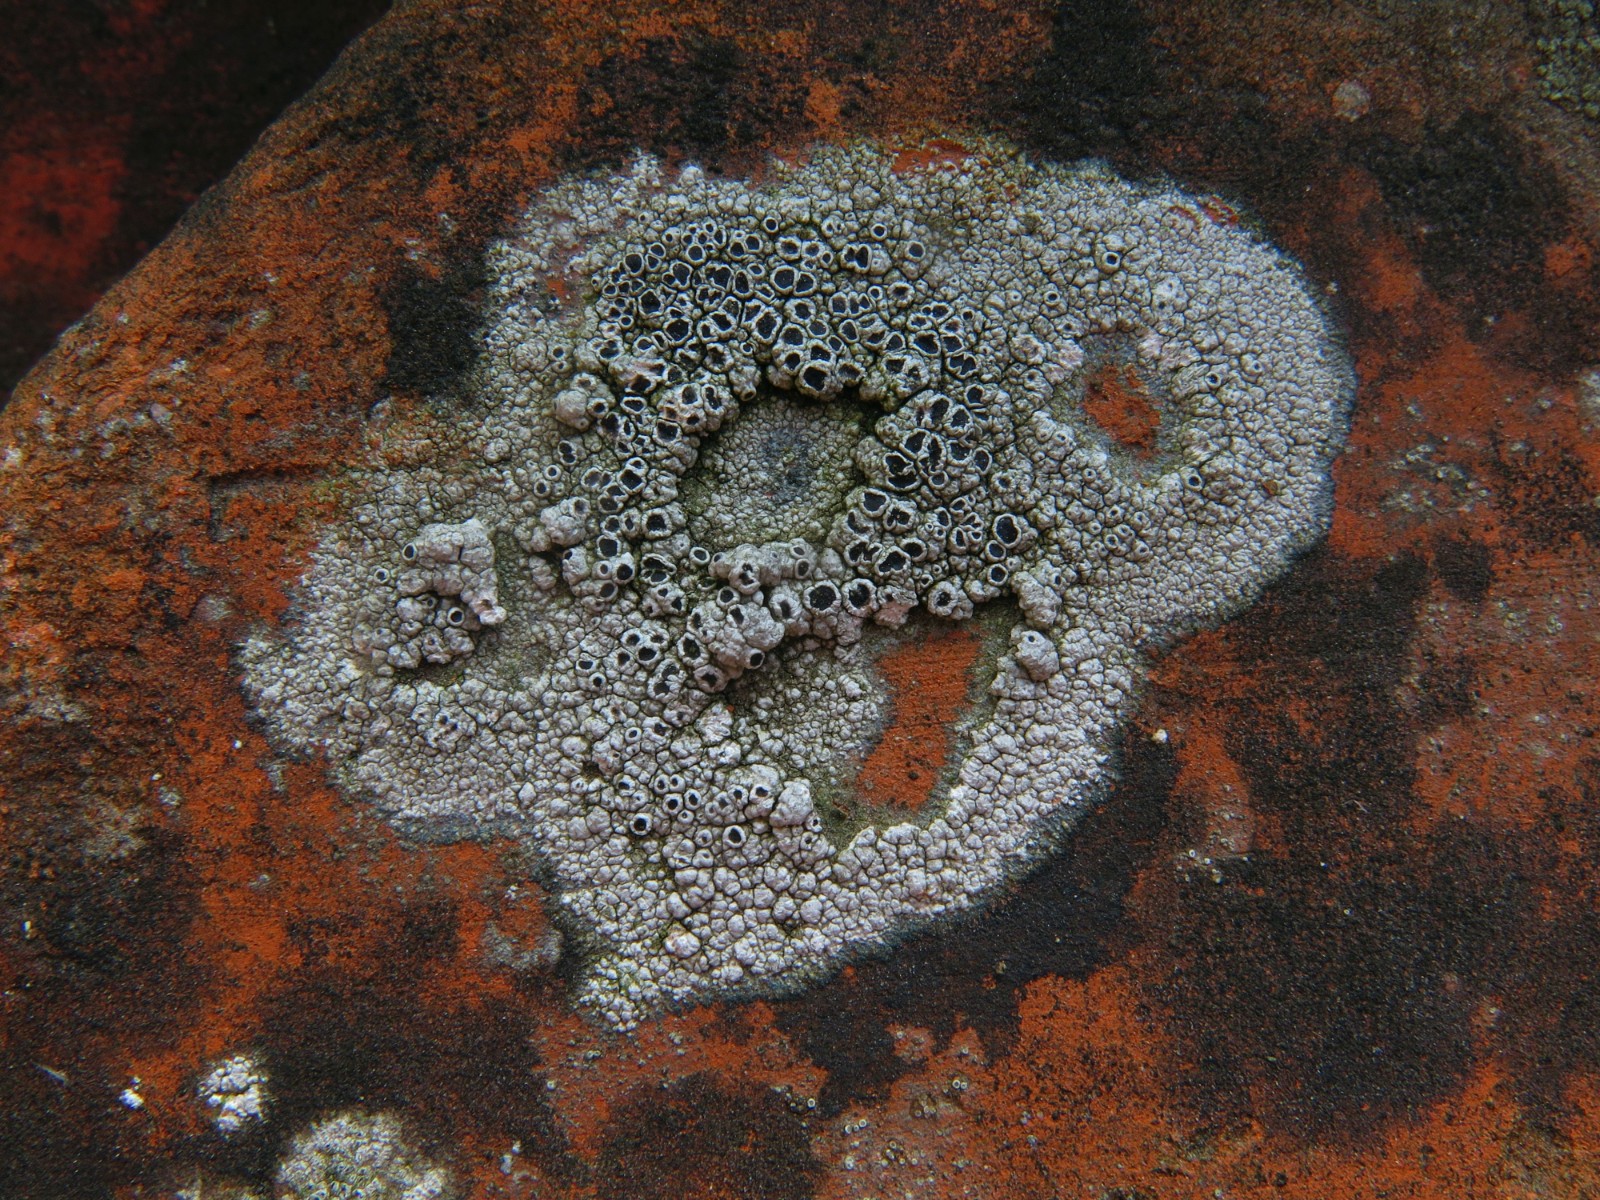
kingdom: Fungi
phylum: Ascomycota
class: Lecanoromycetes
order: Lecanorales
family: Tephromelataceae
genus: Tephromela
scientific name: Tephromela atra
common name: sortfrugtet kantskivelav
